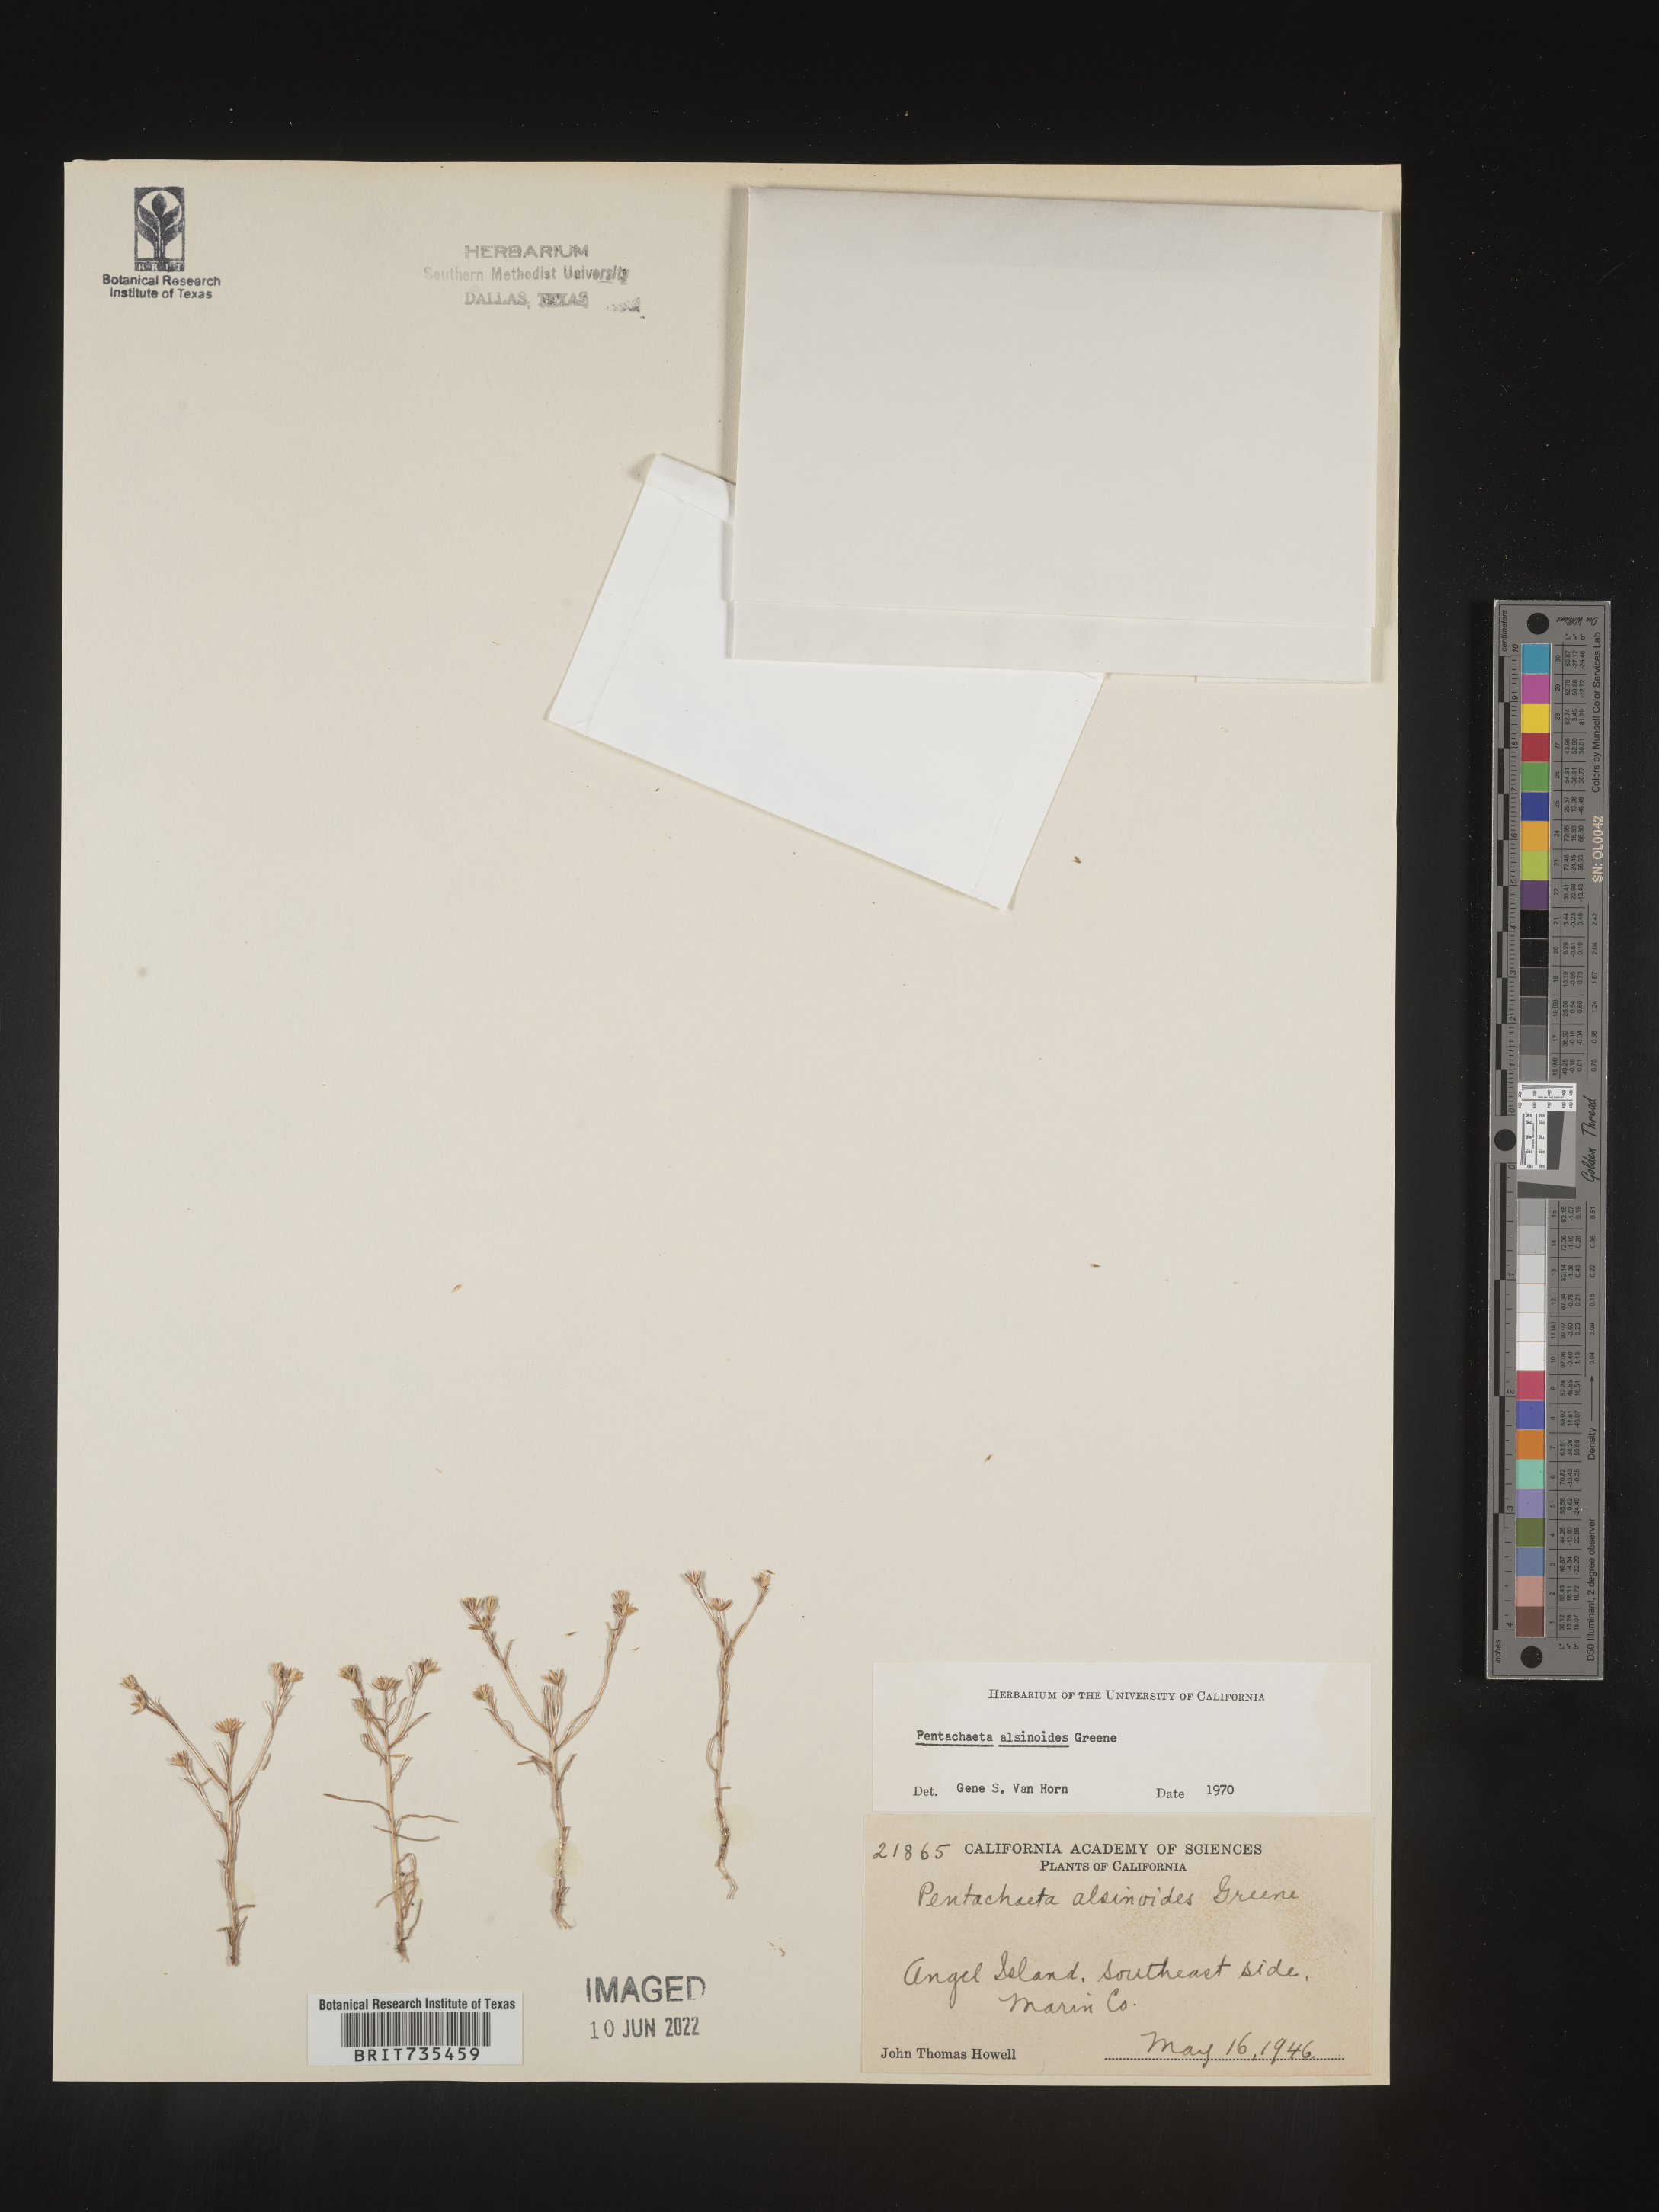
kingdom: Plantae
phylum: Tracheophyta
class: Magnoliopsida
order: Asterales
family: Asteraceae
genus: Pentachaeta
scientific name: Pentachaeta alsinoides
